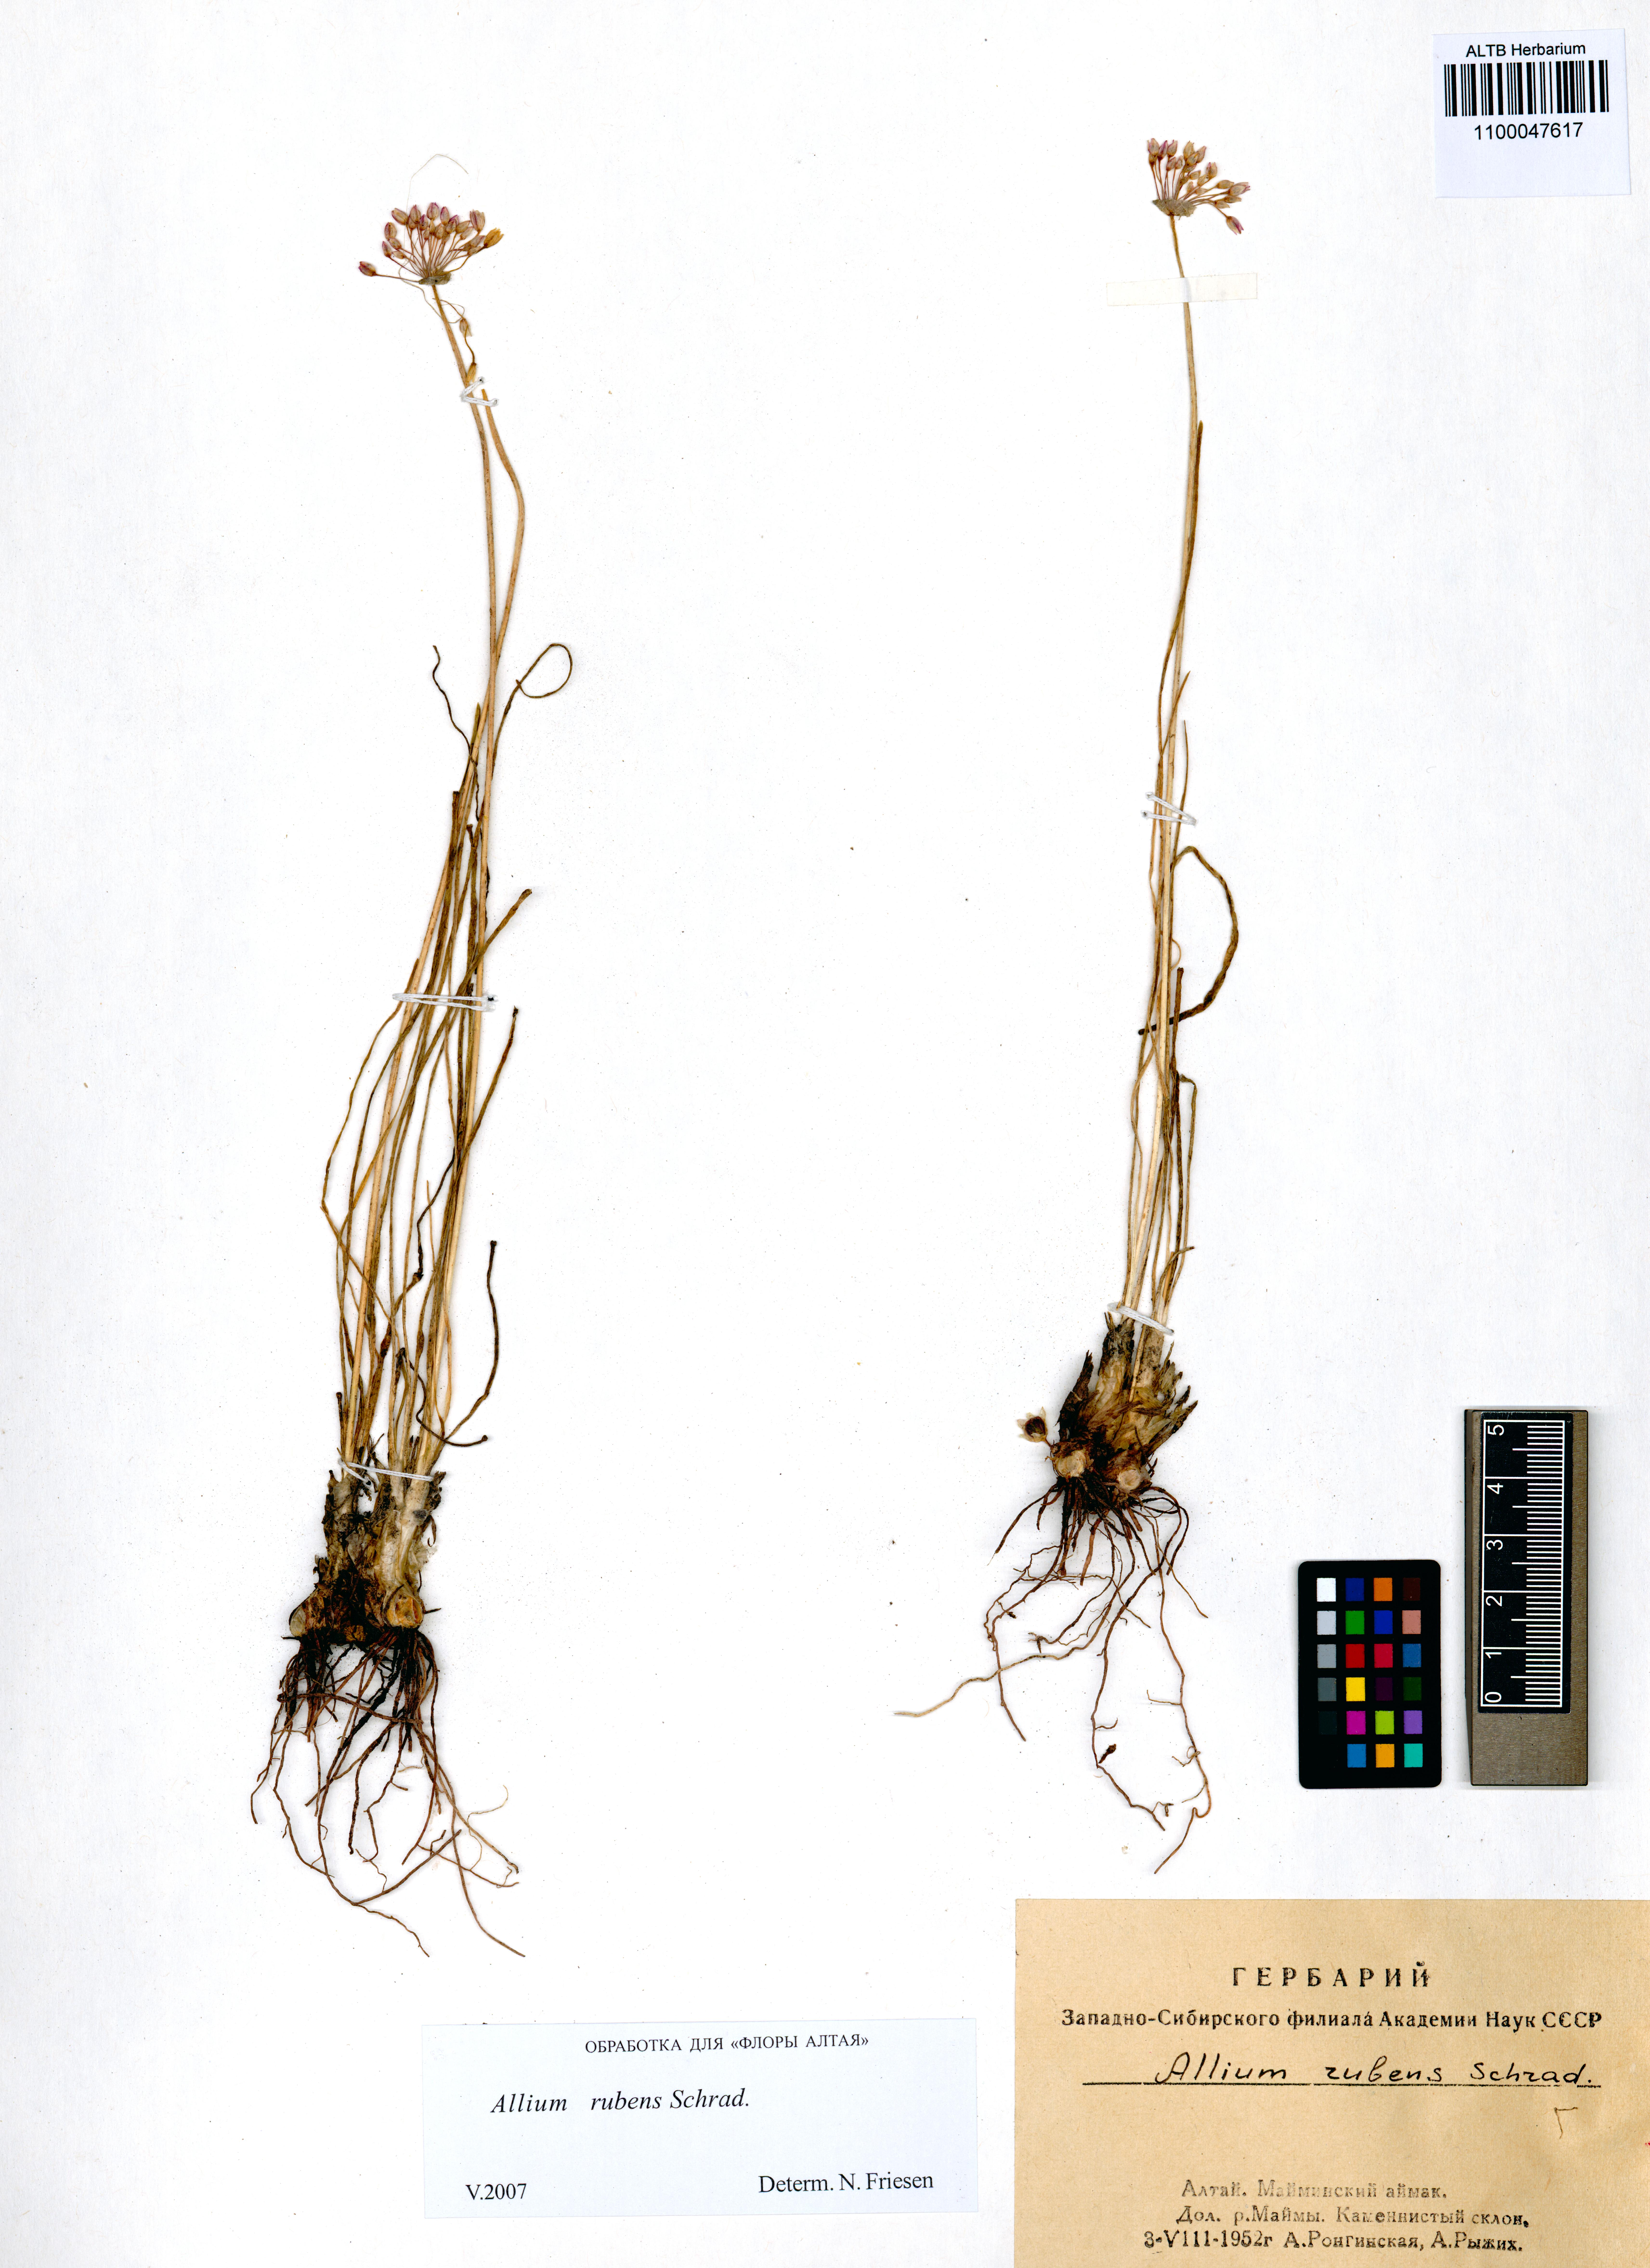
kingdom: Plantae
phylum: Tracheophyta
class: Liliopsida
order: Asparagales
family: Amaryllidaceae
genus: Allium
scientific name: Allium rubens
